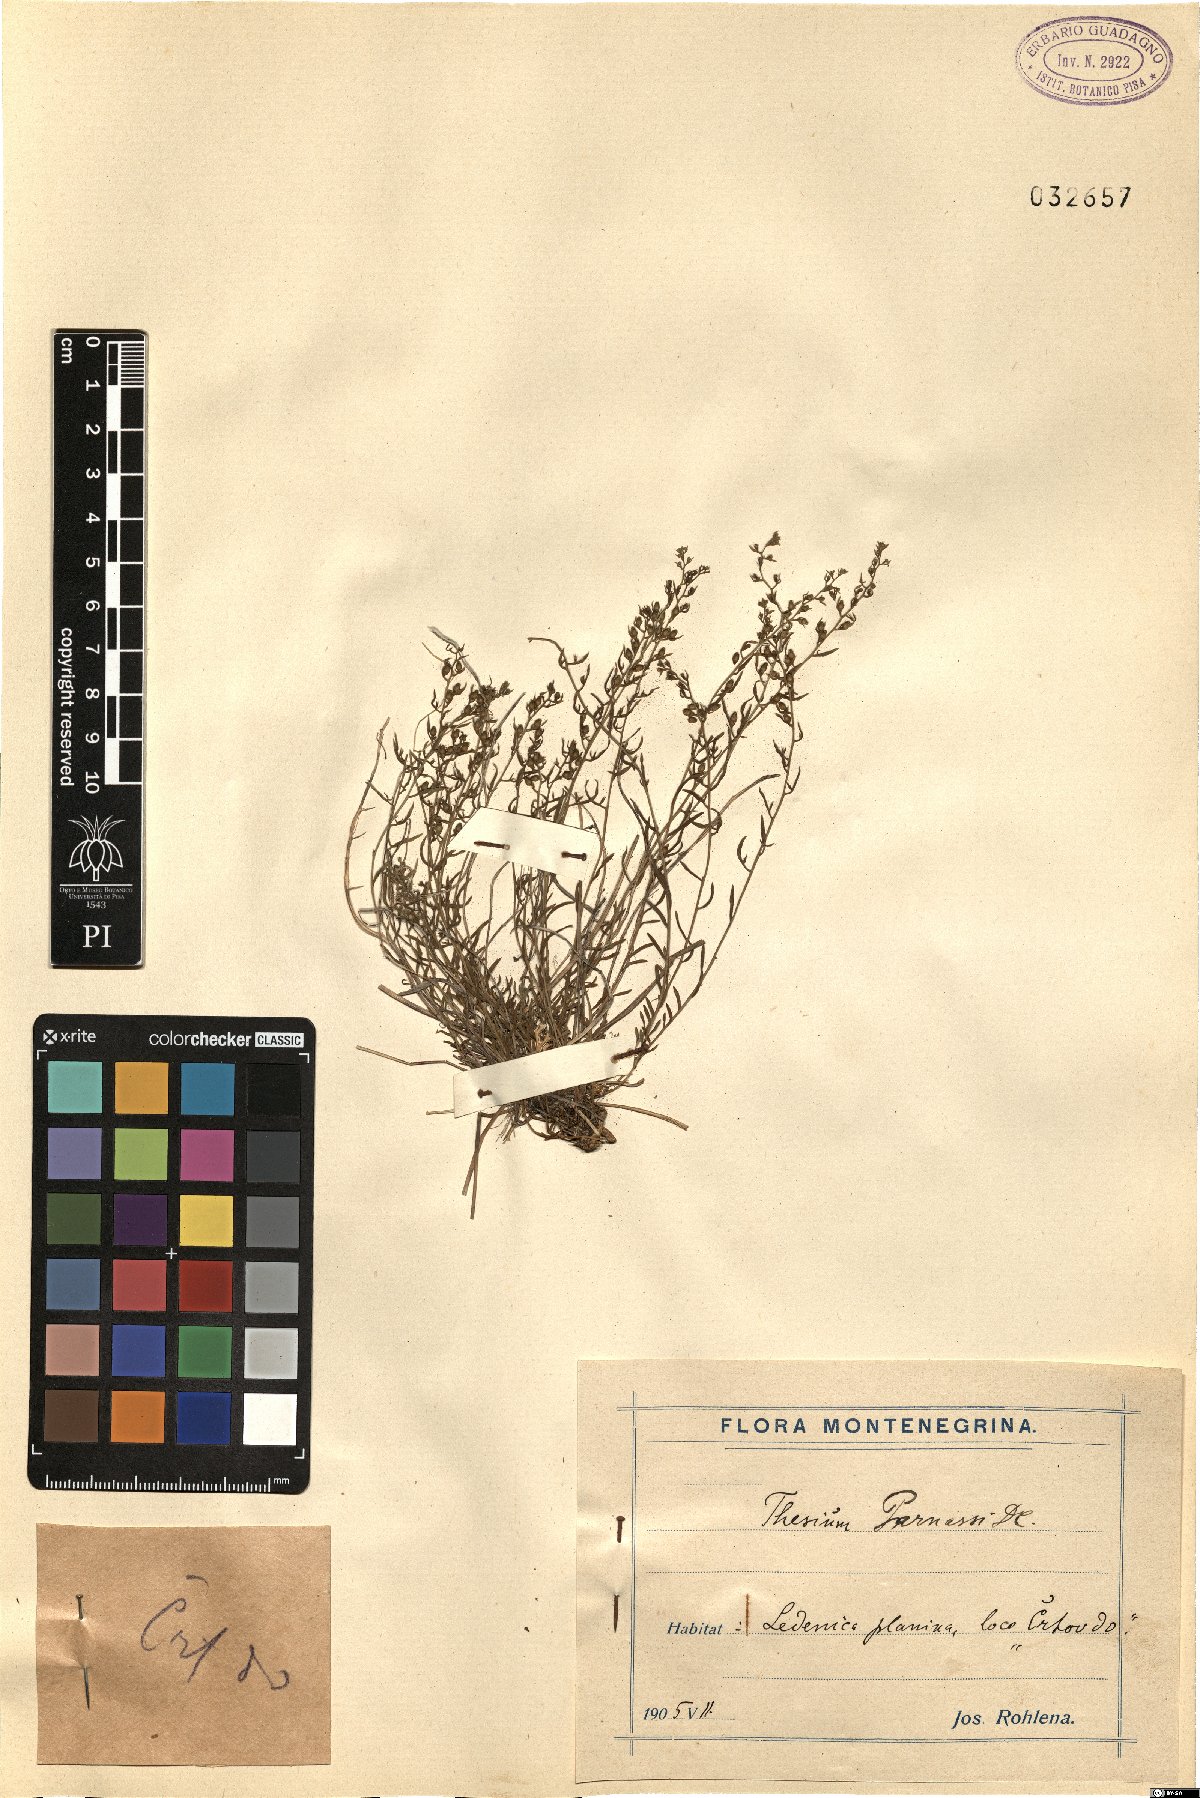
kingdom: Plantae
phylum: Tracheophyta
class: Magnoliopsida
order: Santalales
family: Thesiaceae
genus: Thesium
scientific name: Thesium parnassi
